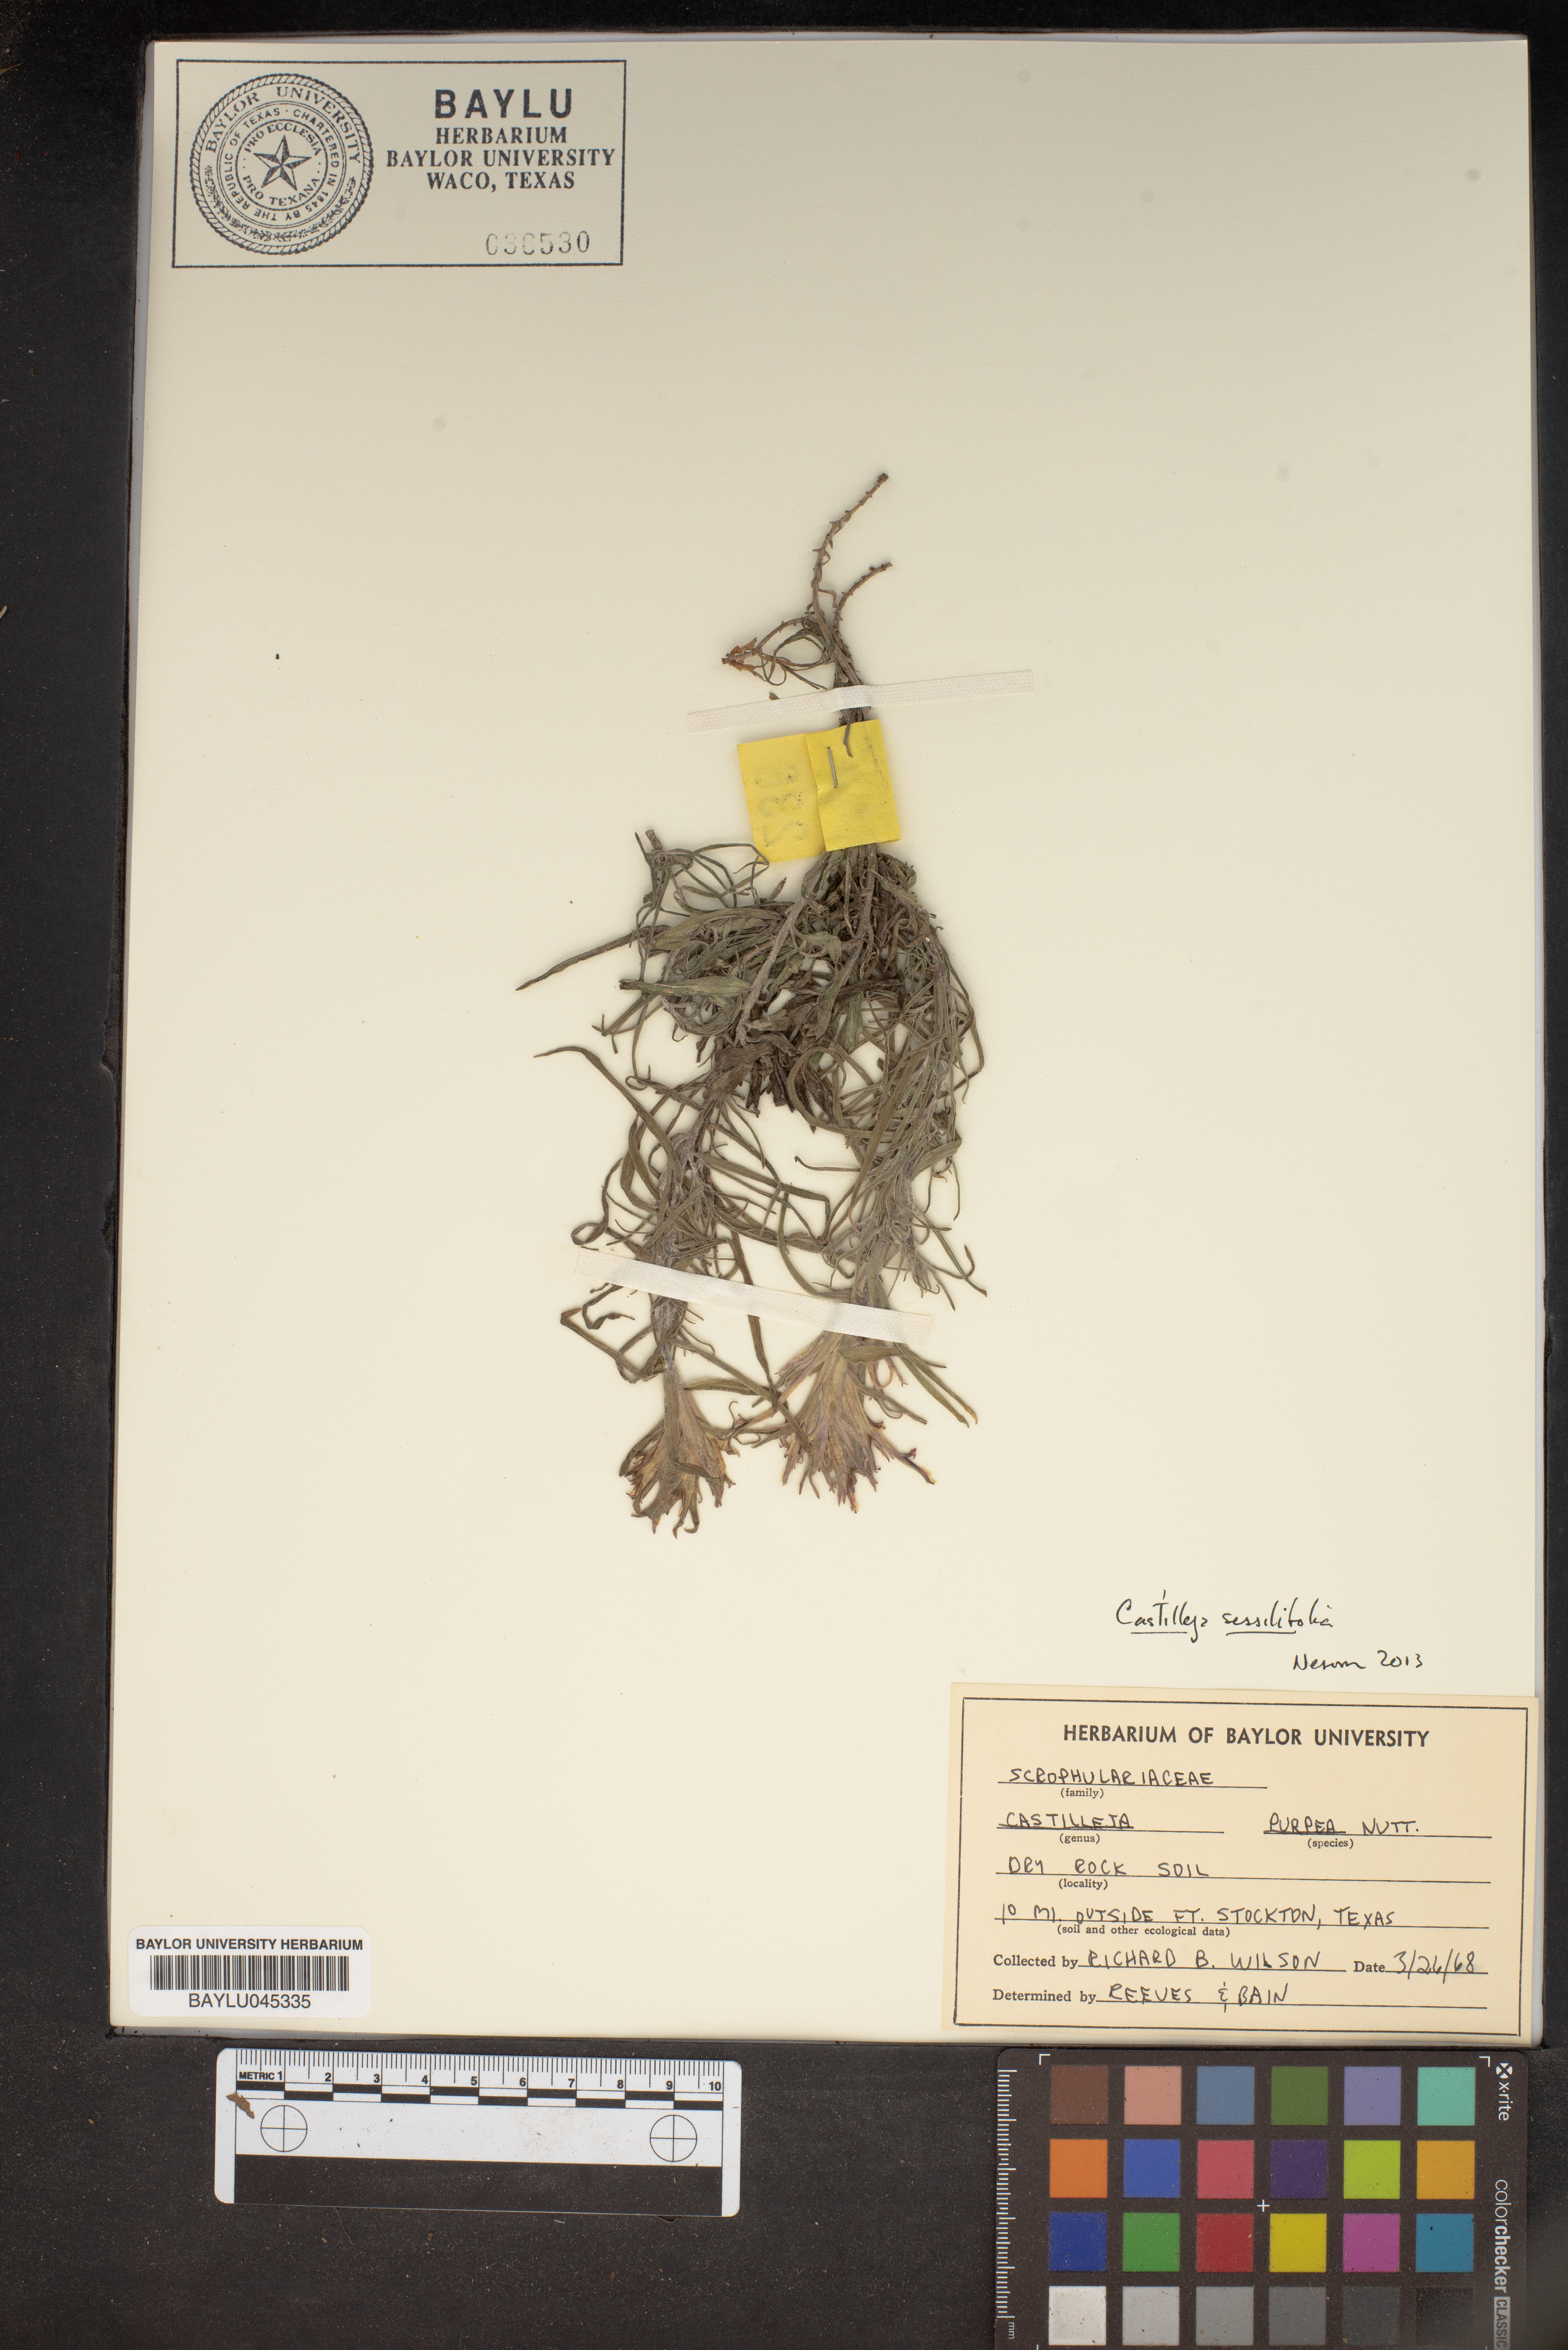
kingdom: Plantae
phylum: Tracheophyta
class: Magnoliopsida
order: Lamiales
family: Orobanchaceae
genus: Castilleja
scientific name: Castilleja purpurea
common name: Plains paintbrush
